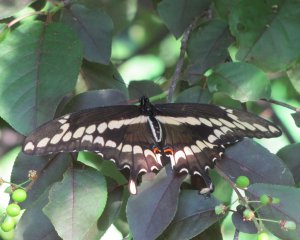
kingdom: Animalia
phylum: Arthropoda
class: Insecta
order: Lepidoptera
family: Papilionidae
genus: Papilio
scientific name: Papilio cresphontes
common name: Eastern Giant Swallowtail
